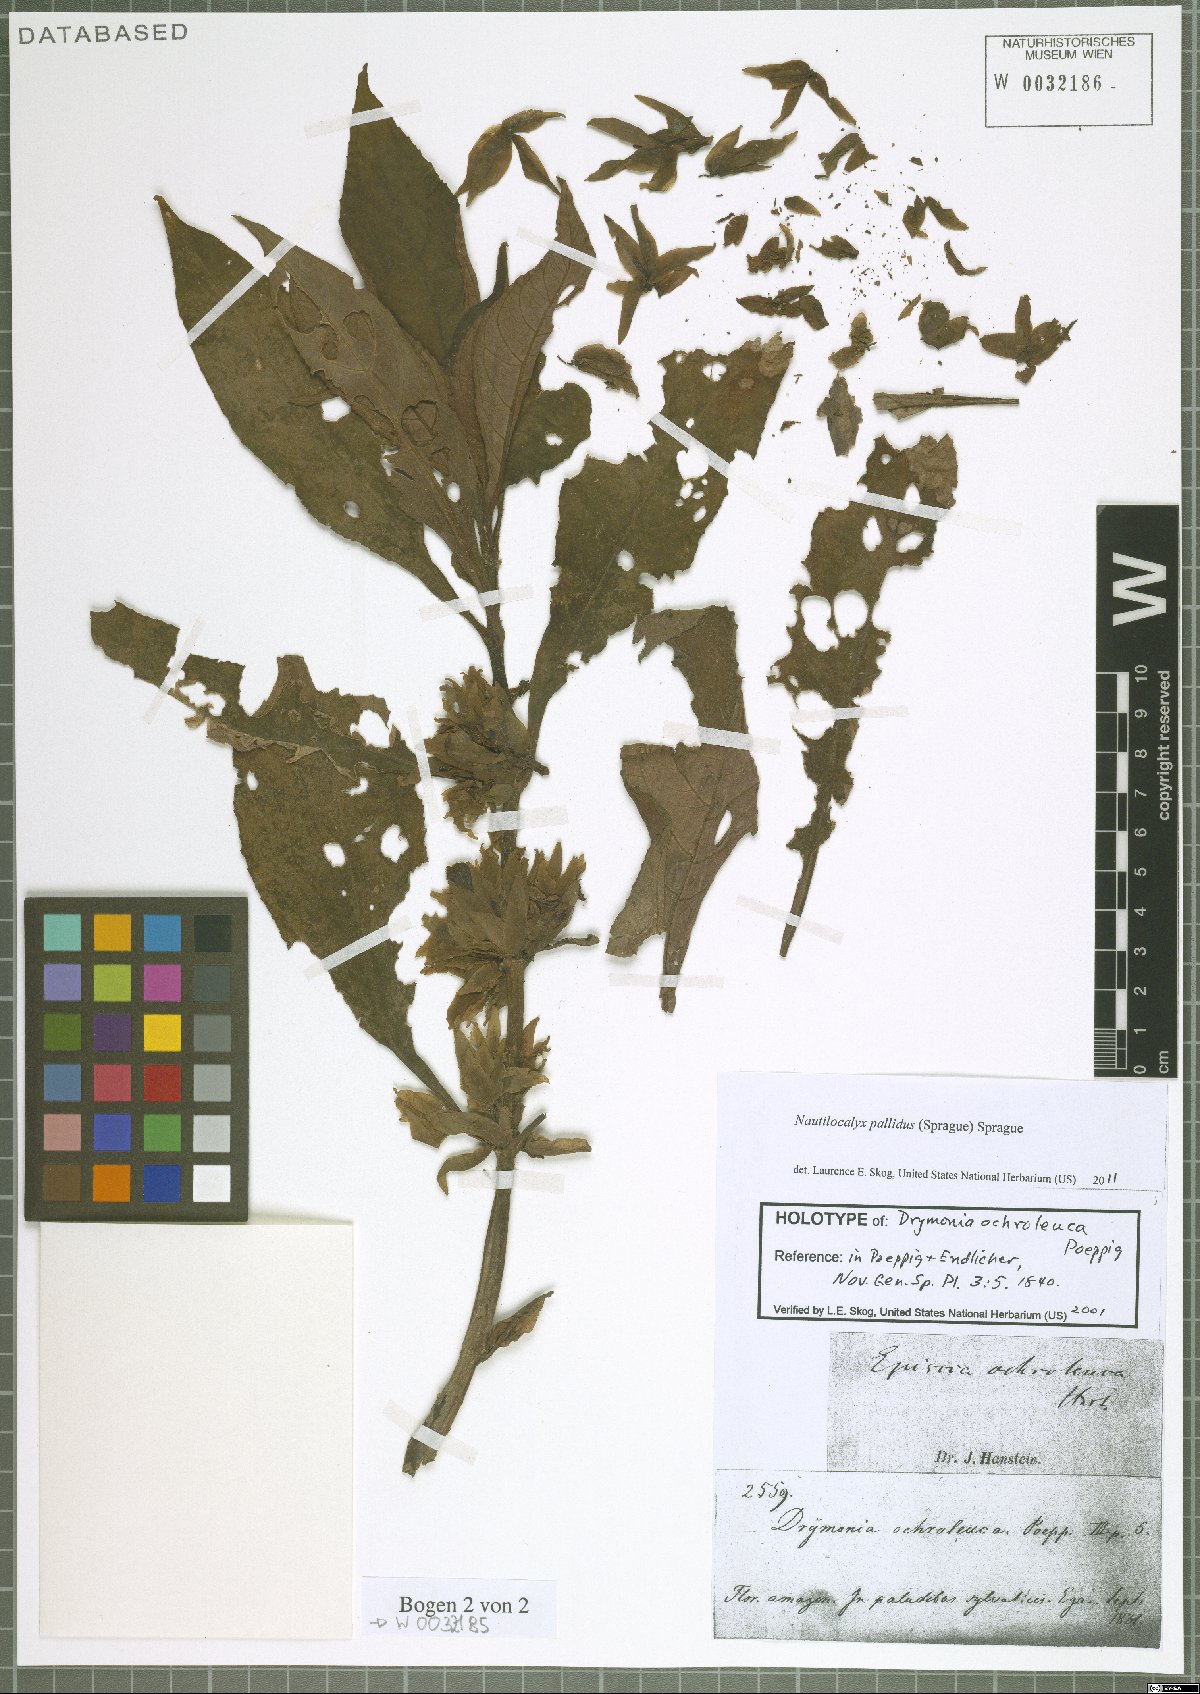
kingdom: Plantae
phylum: Tracheophyta
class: Magnoliopsida
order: Lamiales
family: Gesneriaceae
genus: Nautilocalyx
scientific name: Nautilocalyx pallidus
